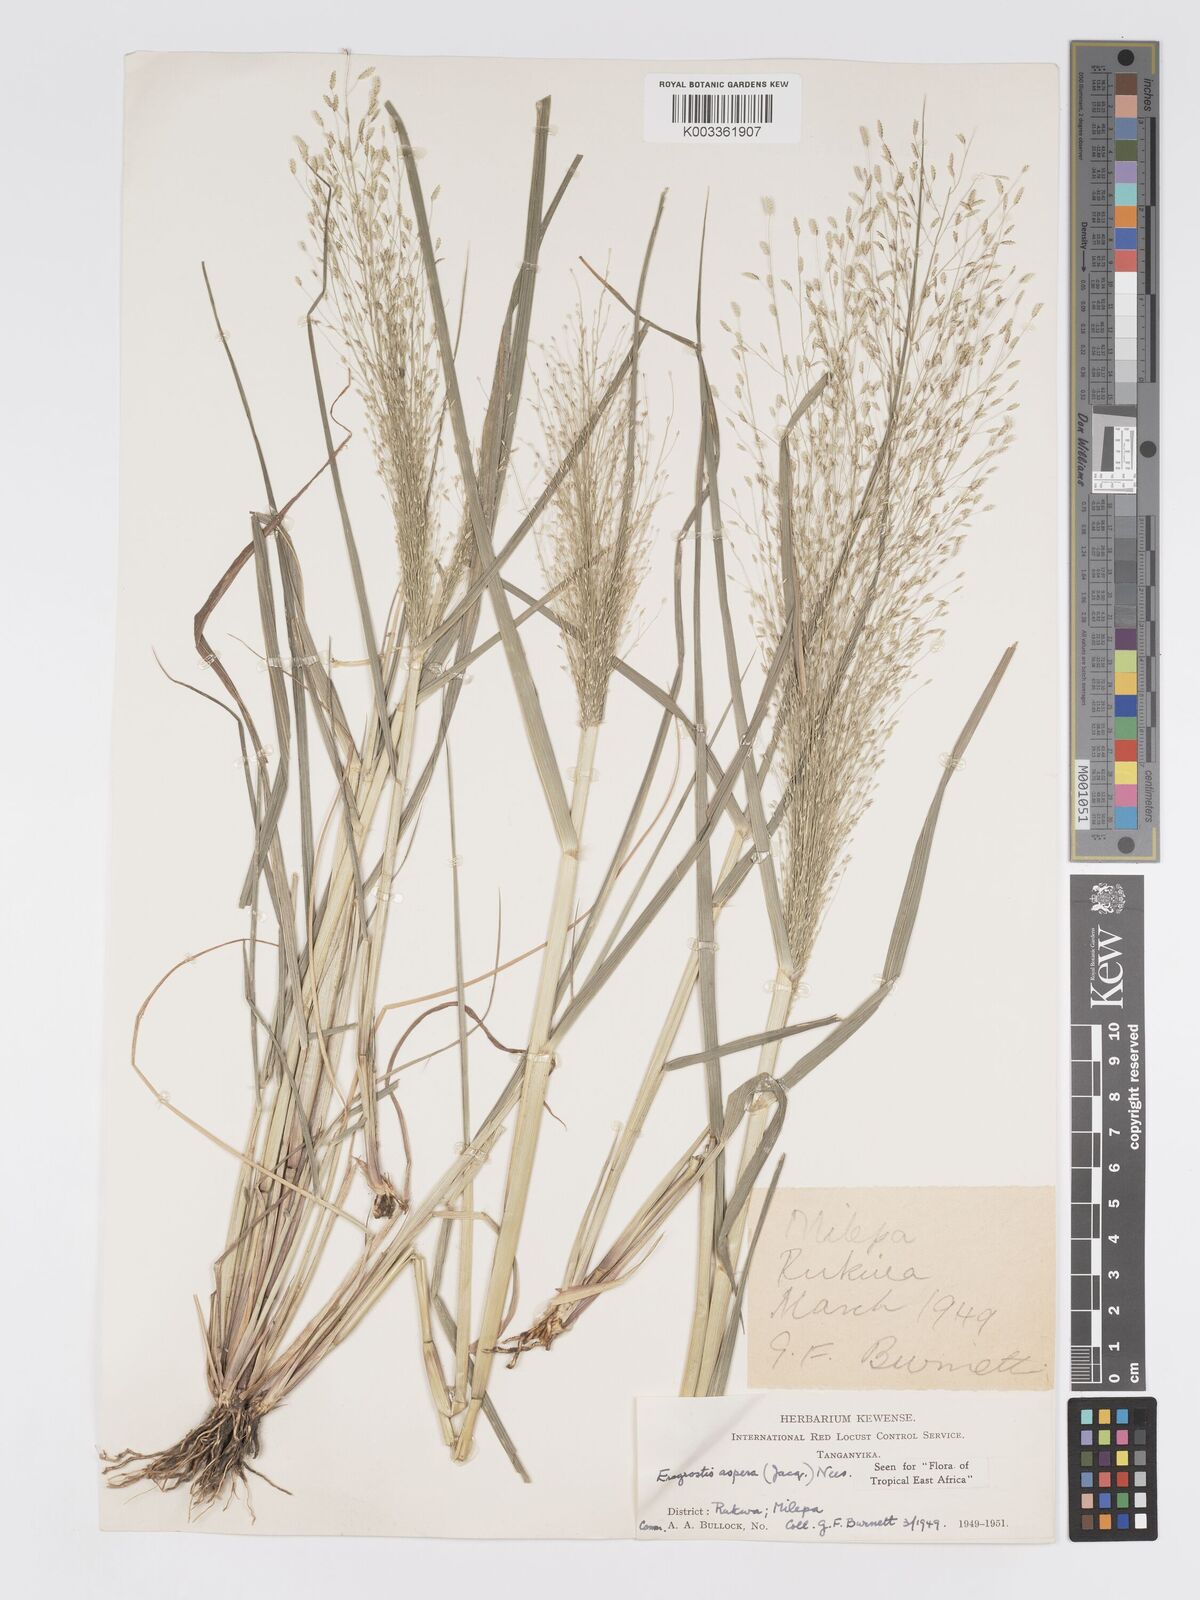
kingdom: Plantae
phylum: Tracheophyta
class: Liliopsida
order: Poales
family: Poaceae
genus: Eragrostis
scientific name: Eragrostis aspera
